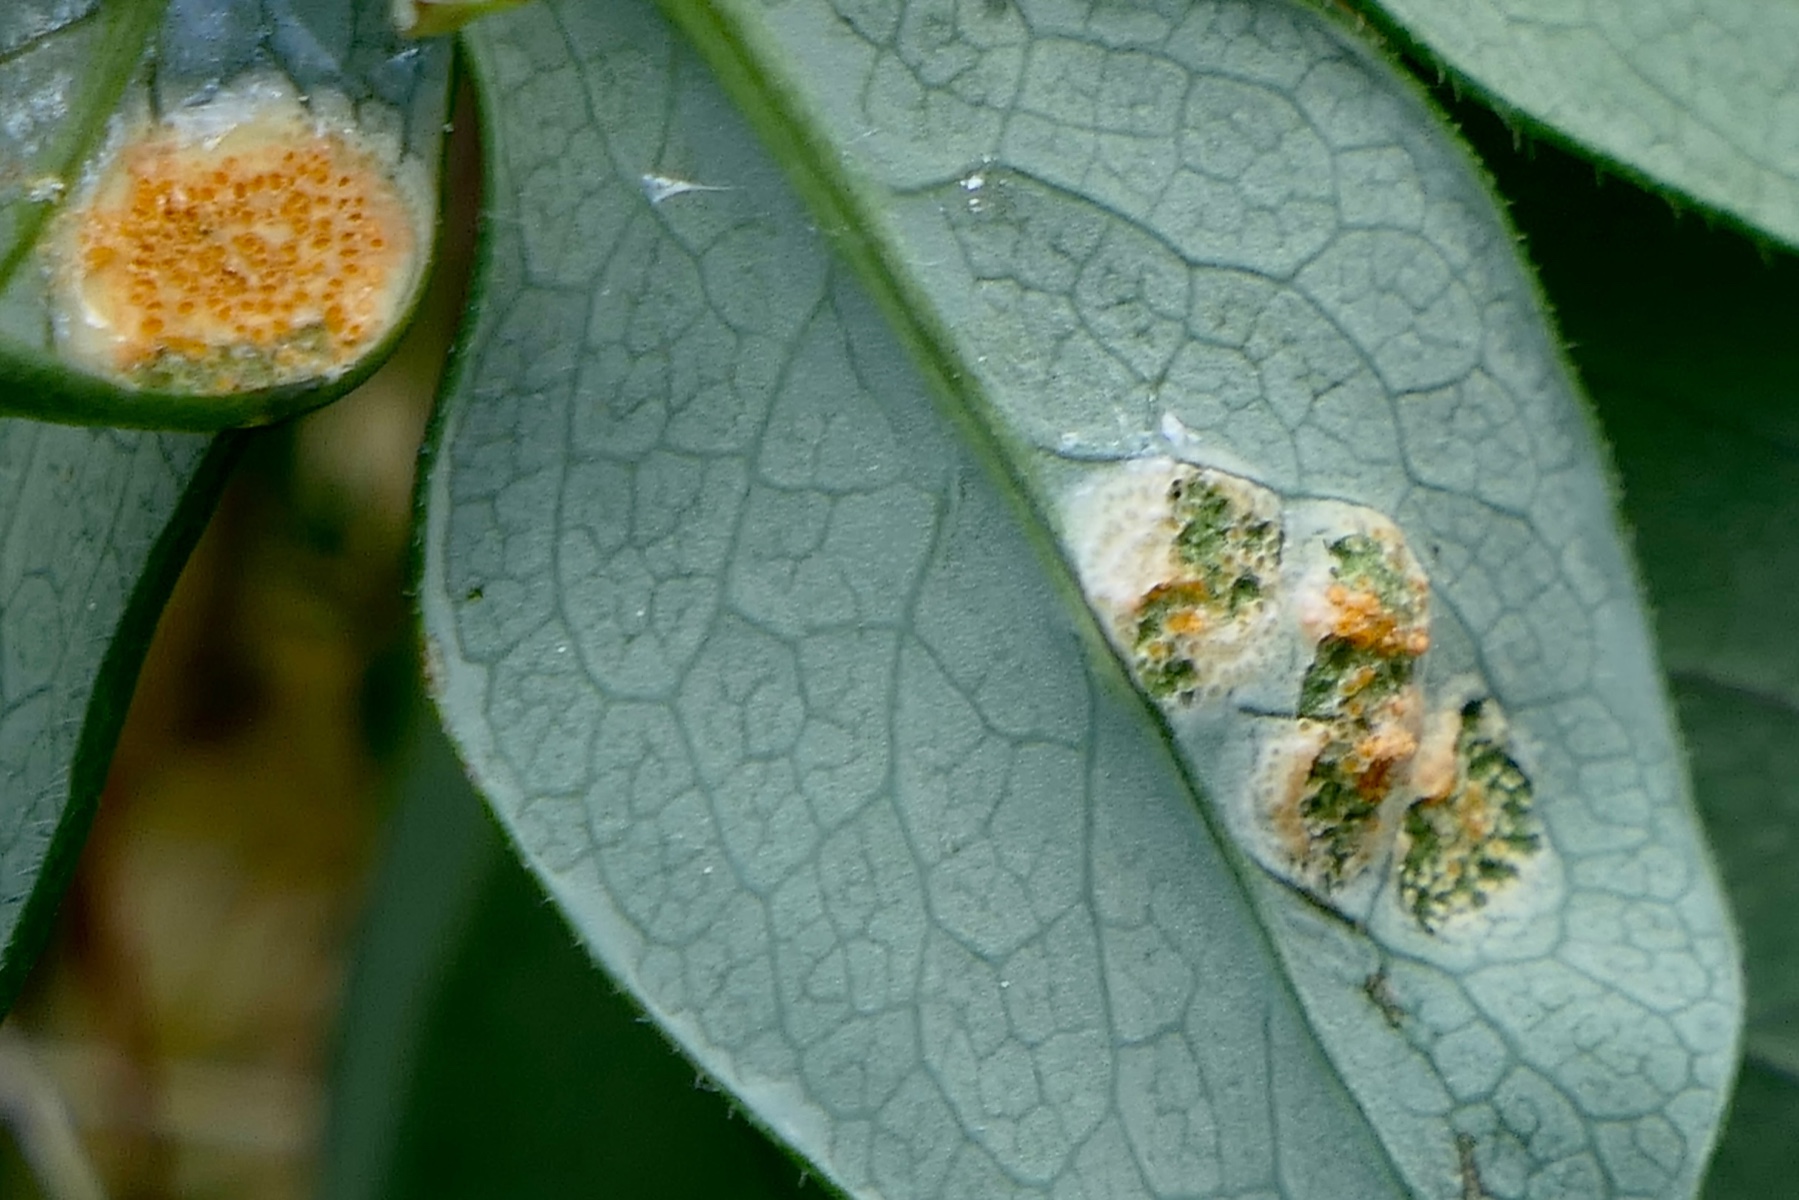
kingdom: Fungi
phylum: Basidiomycota
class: Pucciniomycetes
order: Pucciniales
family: Pucciniaceae
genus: Puccinia
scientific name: Puccinia festucae
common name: gedeblad-tvecellerust
